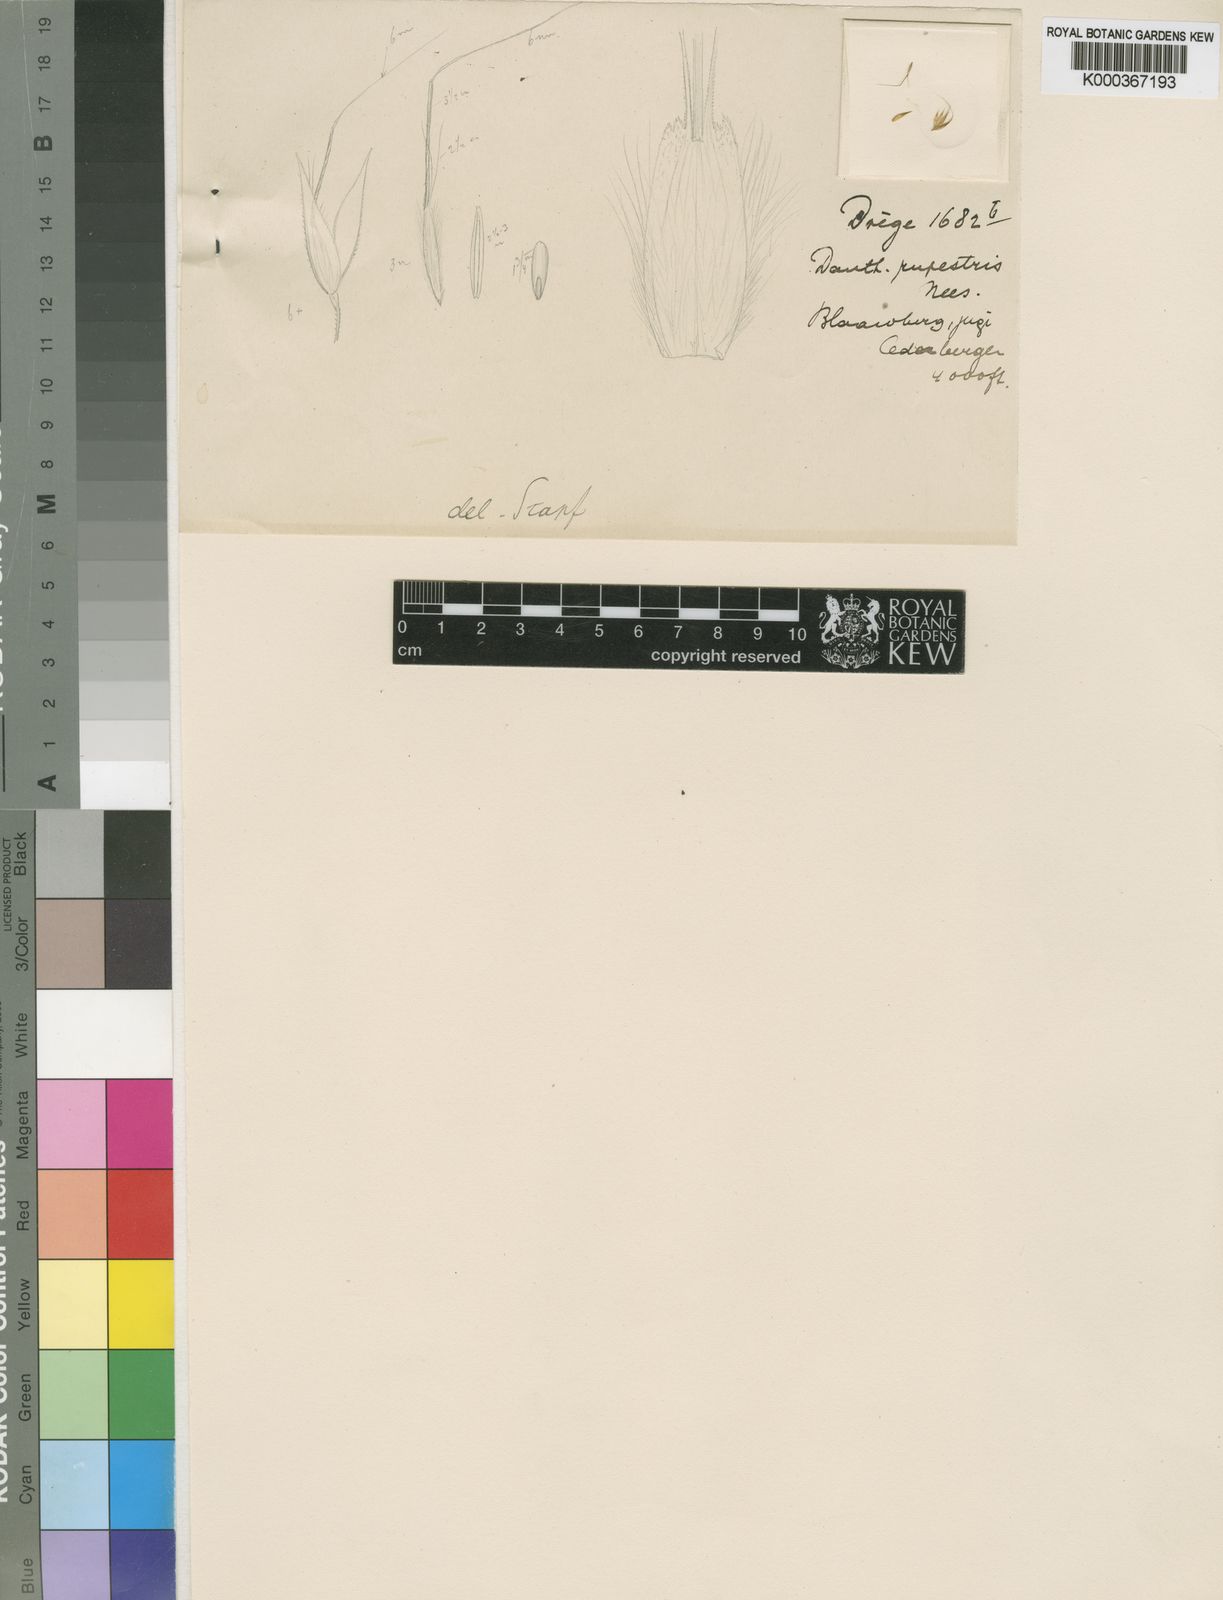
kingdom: Plantae
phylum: Tracheophyta
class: Liliopsida
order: Poales
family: Poaceae
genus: Pentameris
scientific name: Pentameris rupestris
